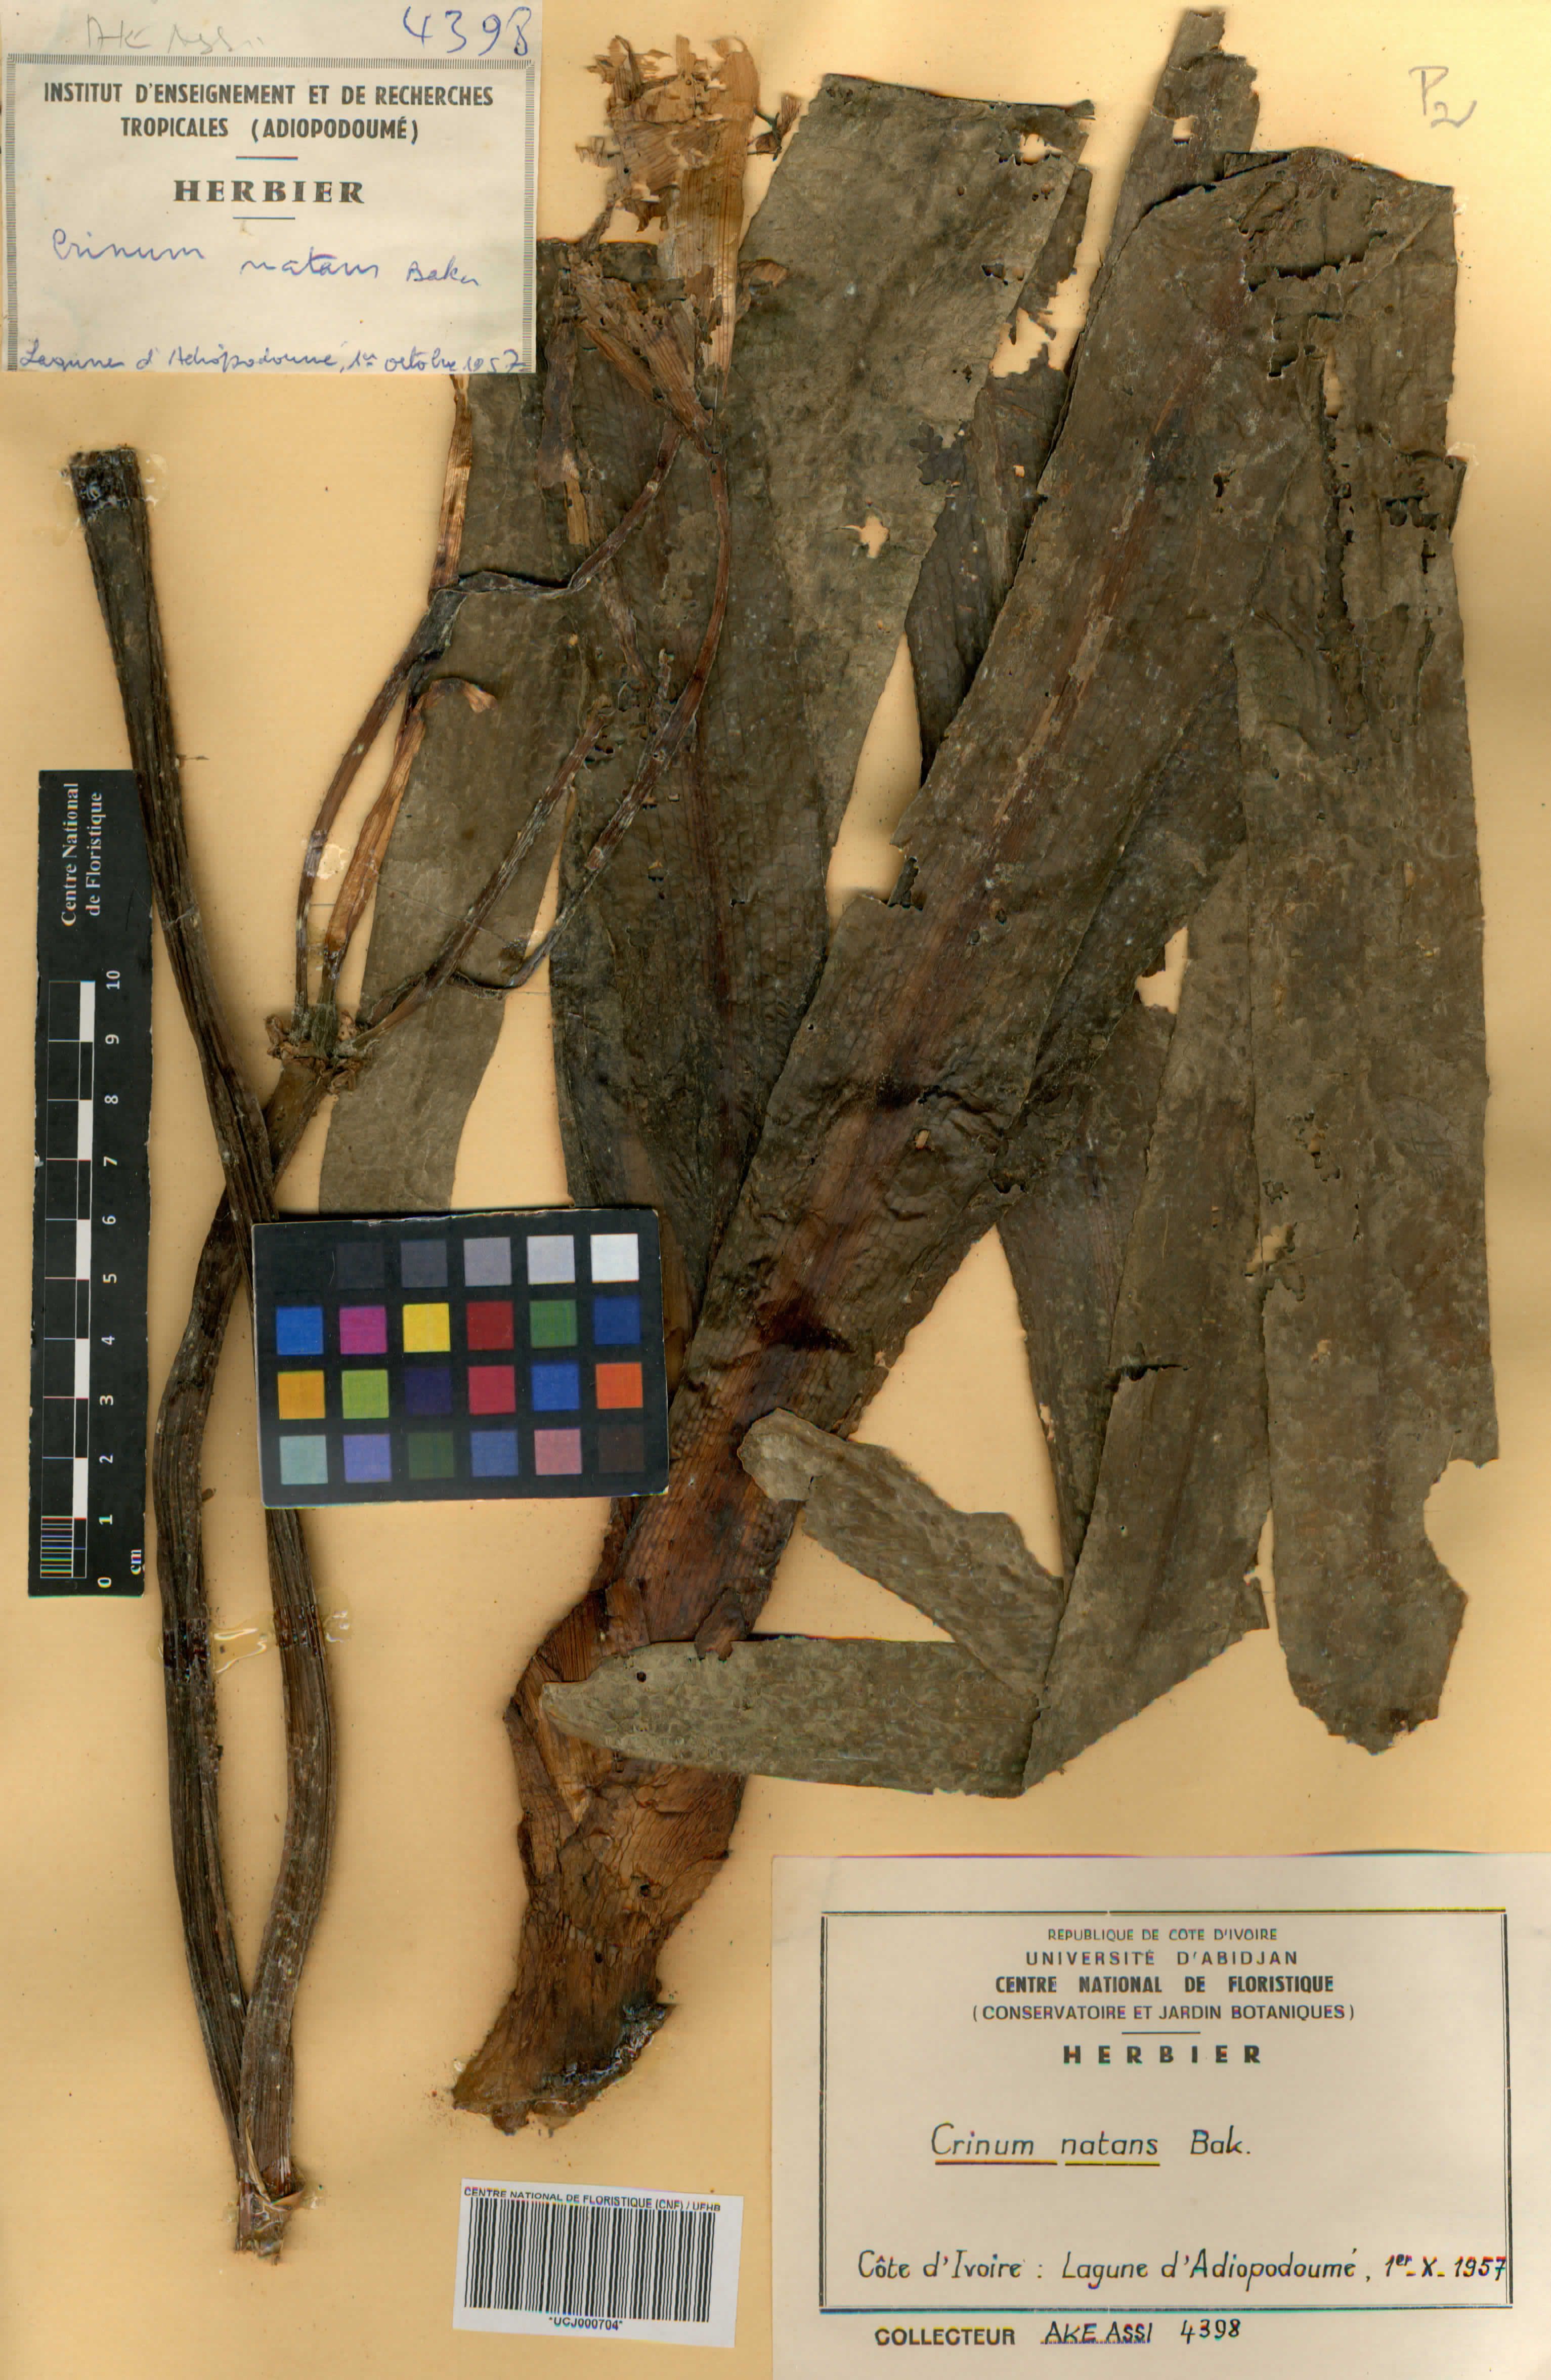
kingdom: Plantae
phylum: Tracheophyta
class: Liliopsida
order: Asparagales
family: Amaryllidaceae
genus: Crinum
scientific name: Crinum natans
